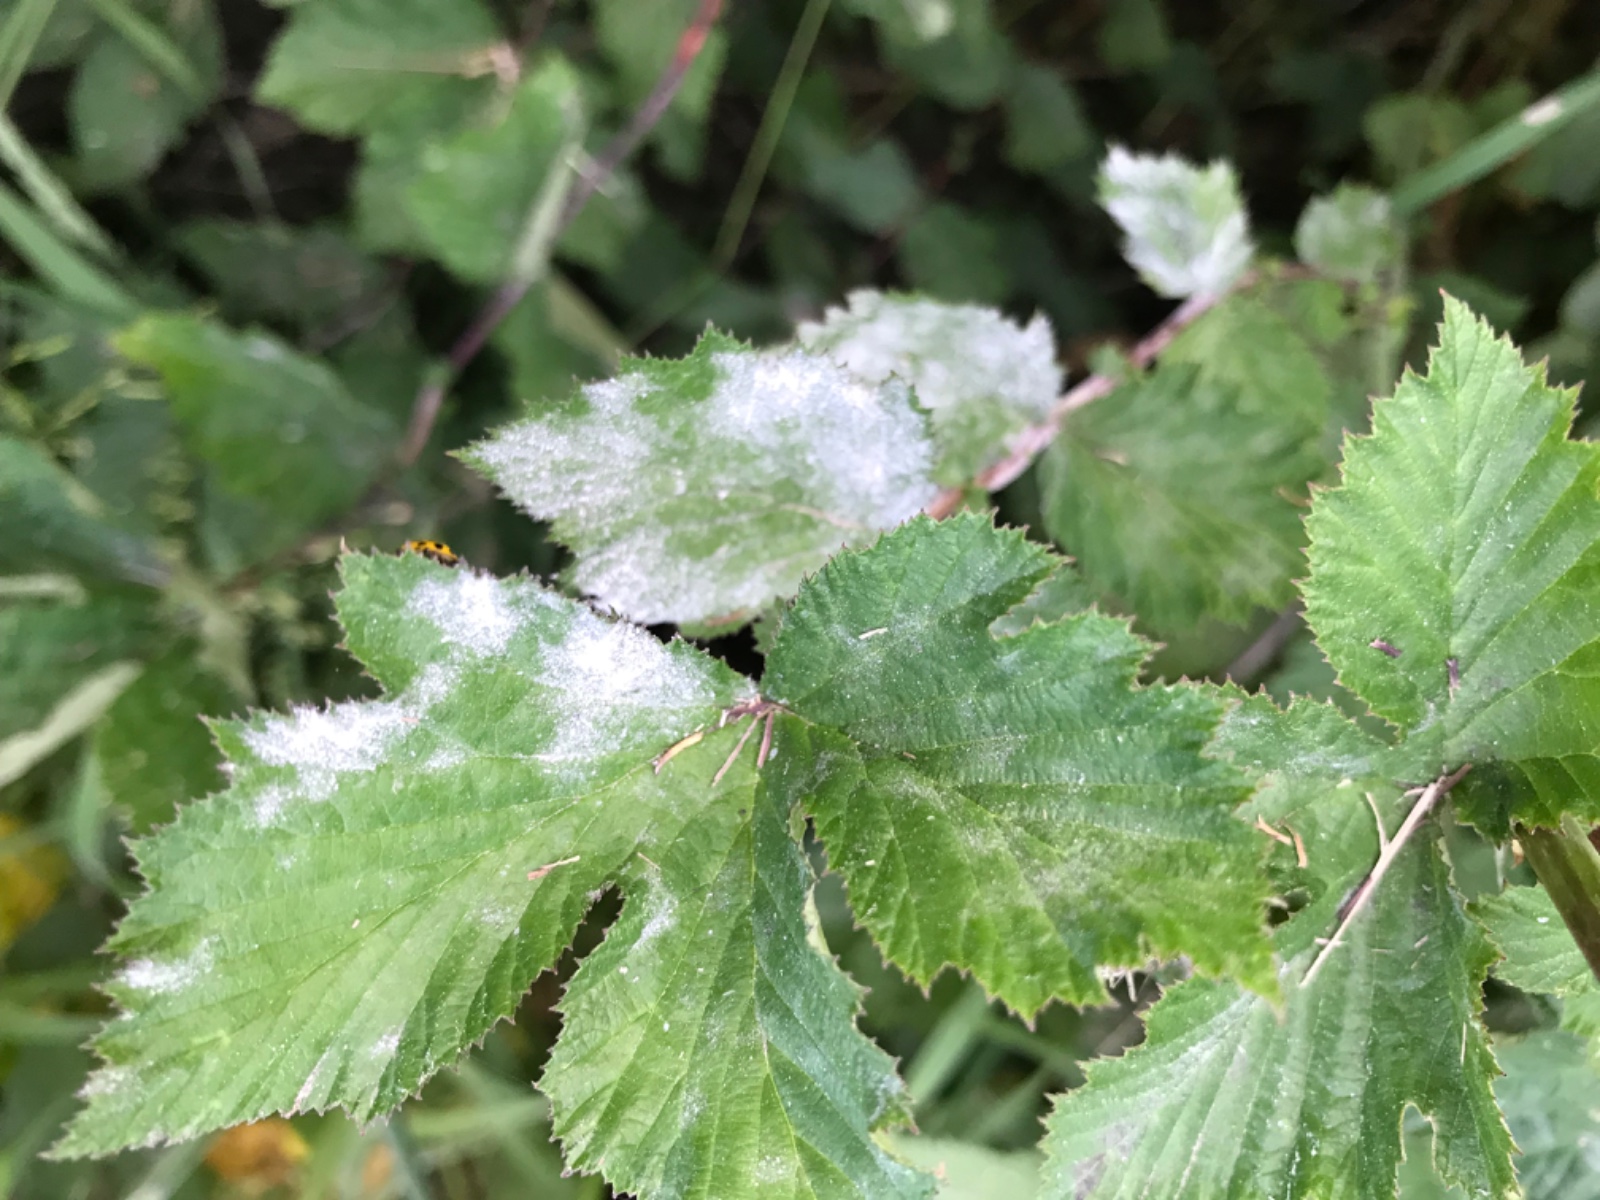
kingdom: Fungi
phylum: Ascomycota
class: Leotiomycetes
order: Helotiales
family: Erysiphaceae
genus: Podosphaera
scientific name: Podosphaera filipendulae
